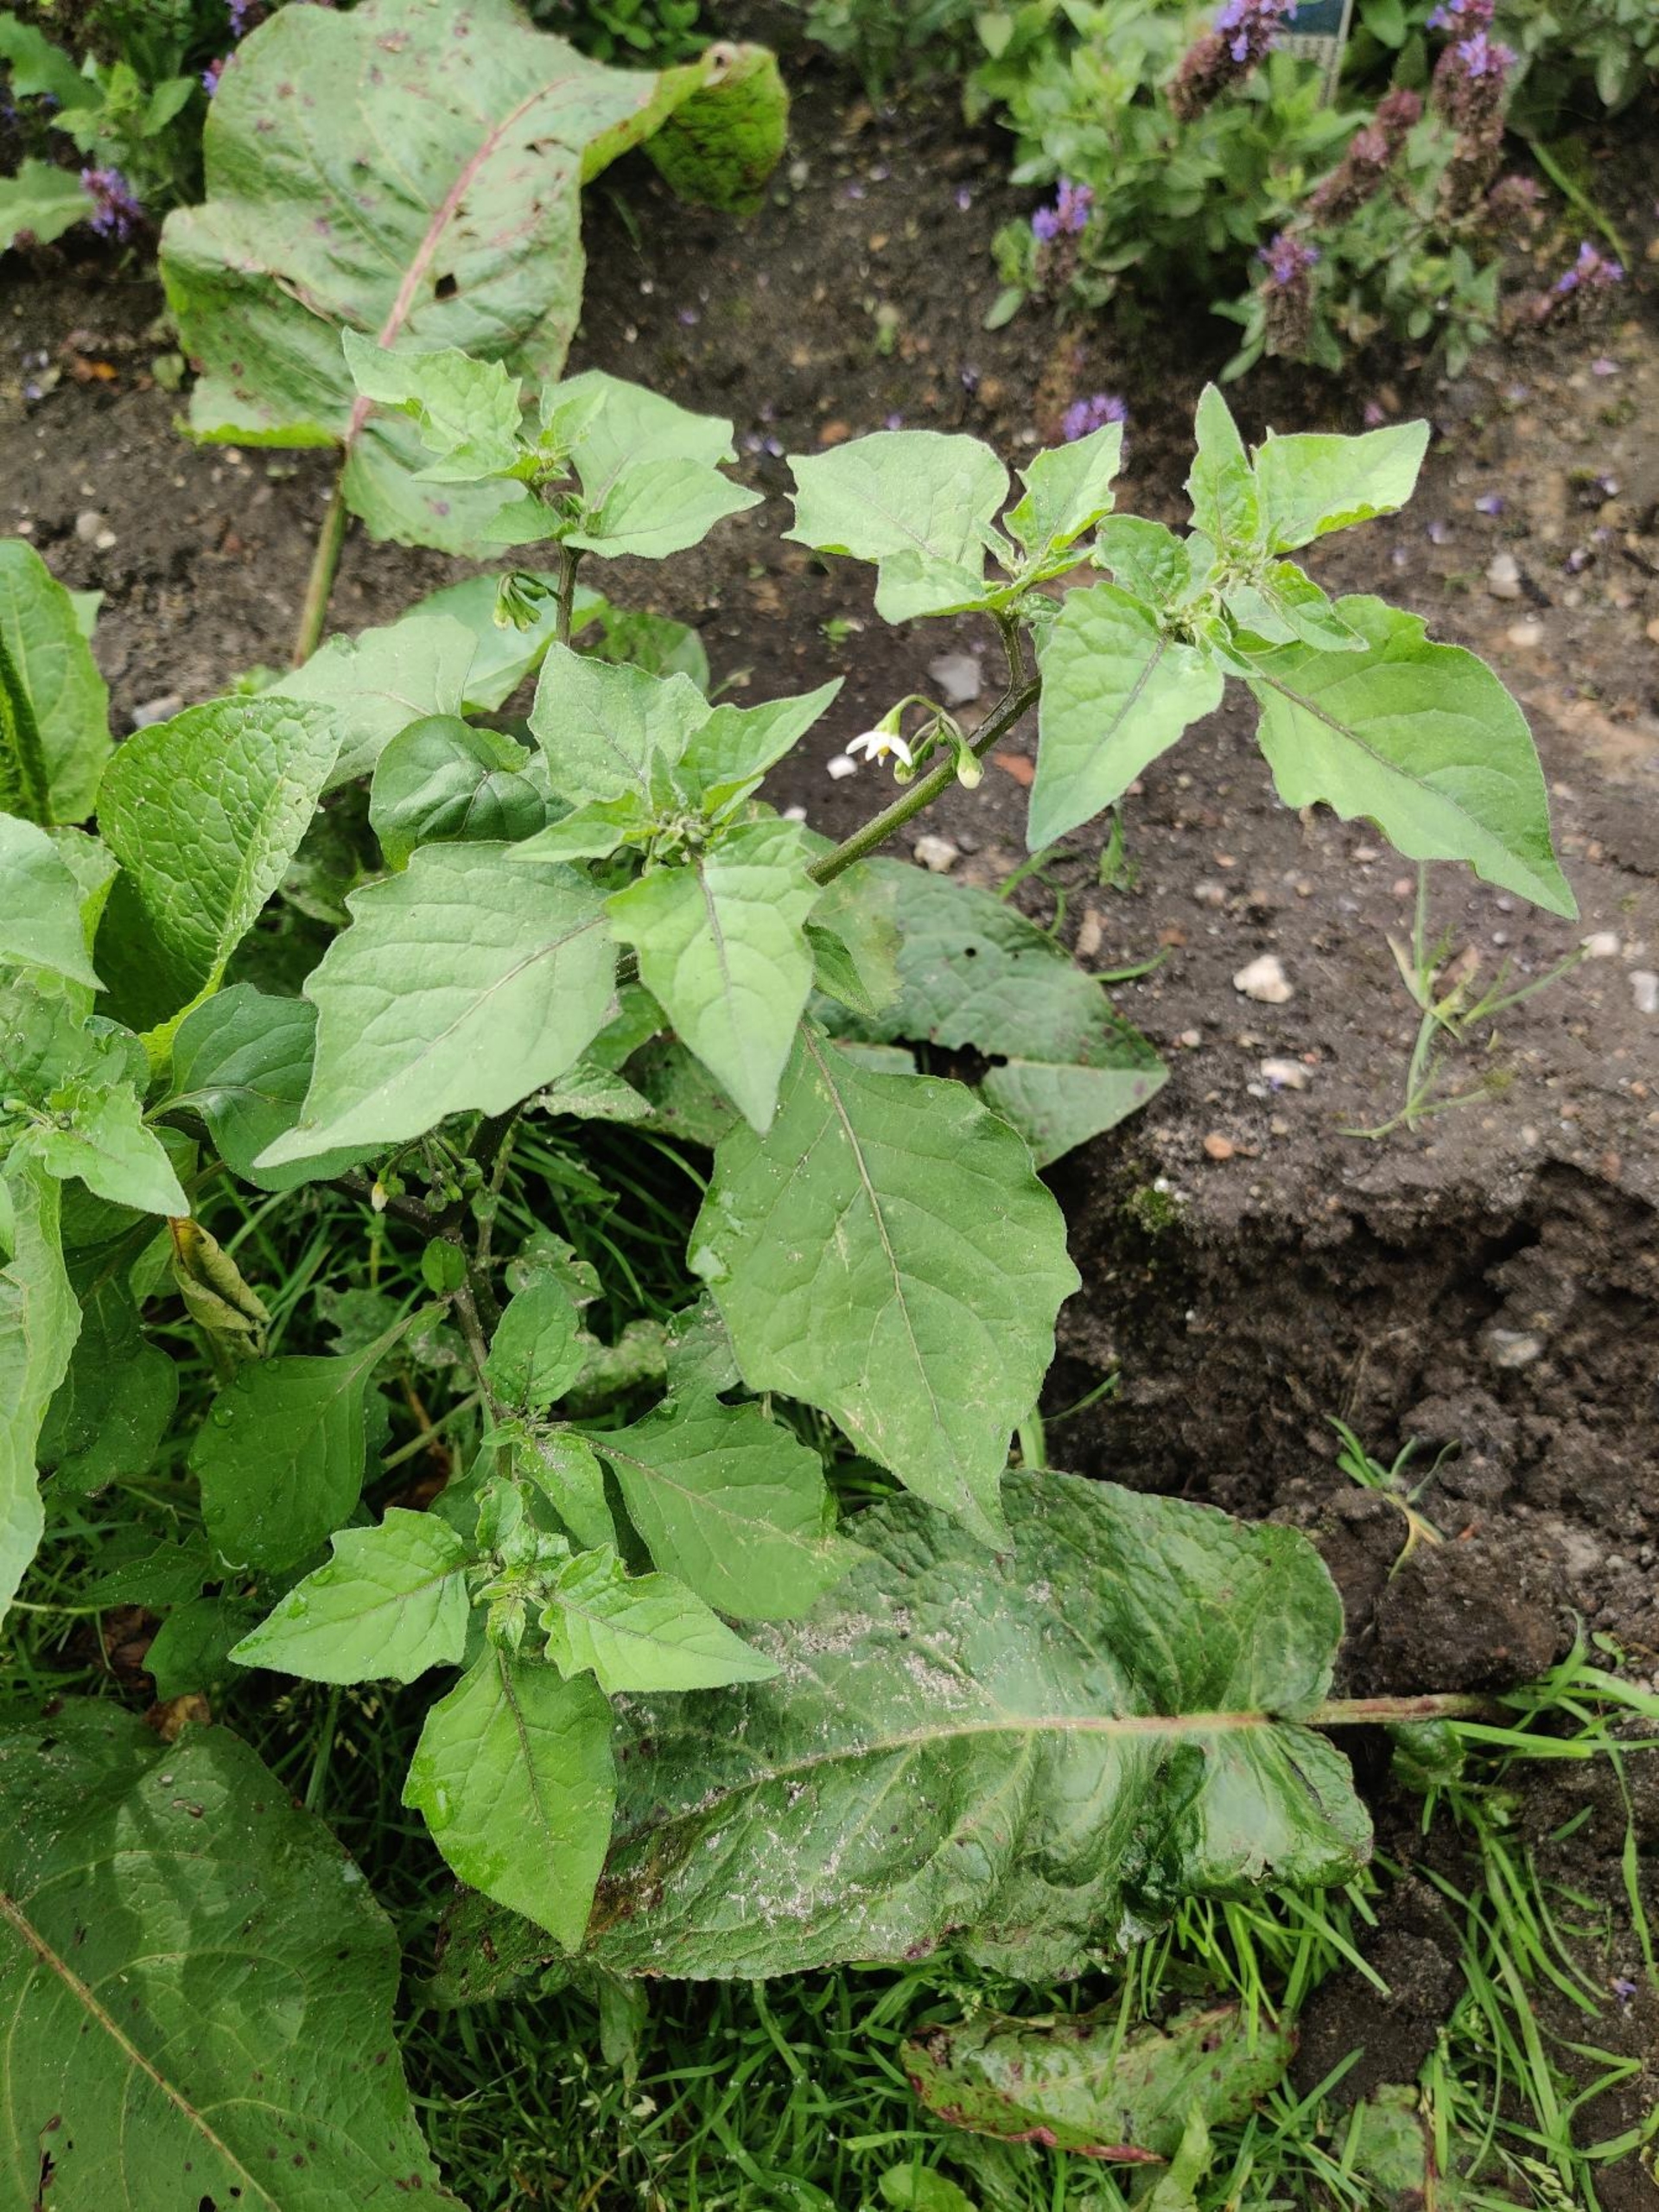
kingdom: Plantae
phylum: Tracheophyta
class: Magnoliopsida
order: Solanales
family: Solanaceae
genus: Solanum
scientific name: Solanum nigrum
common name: Sort natskygge
